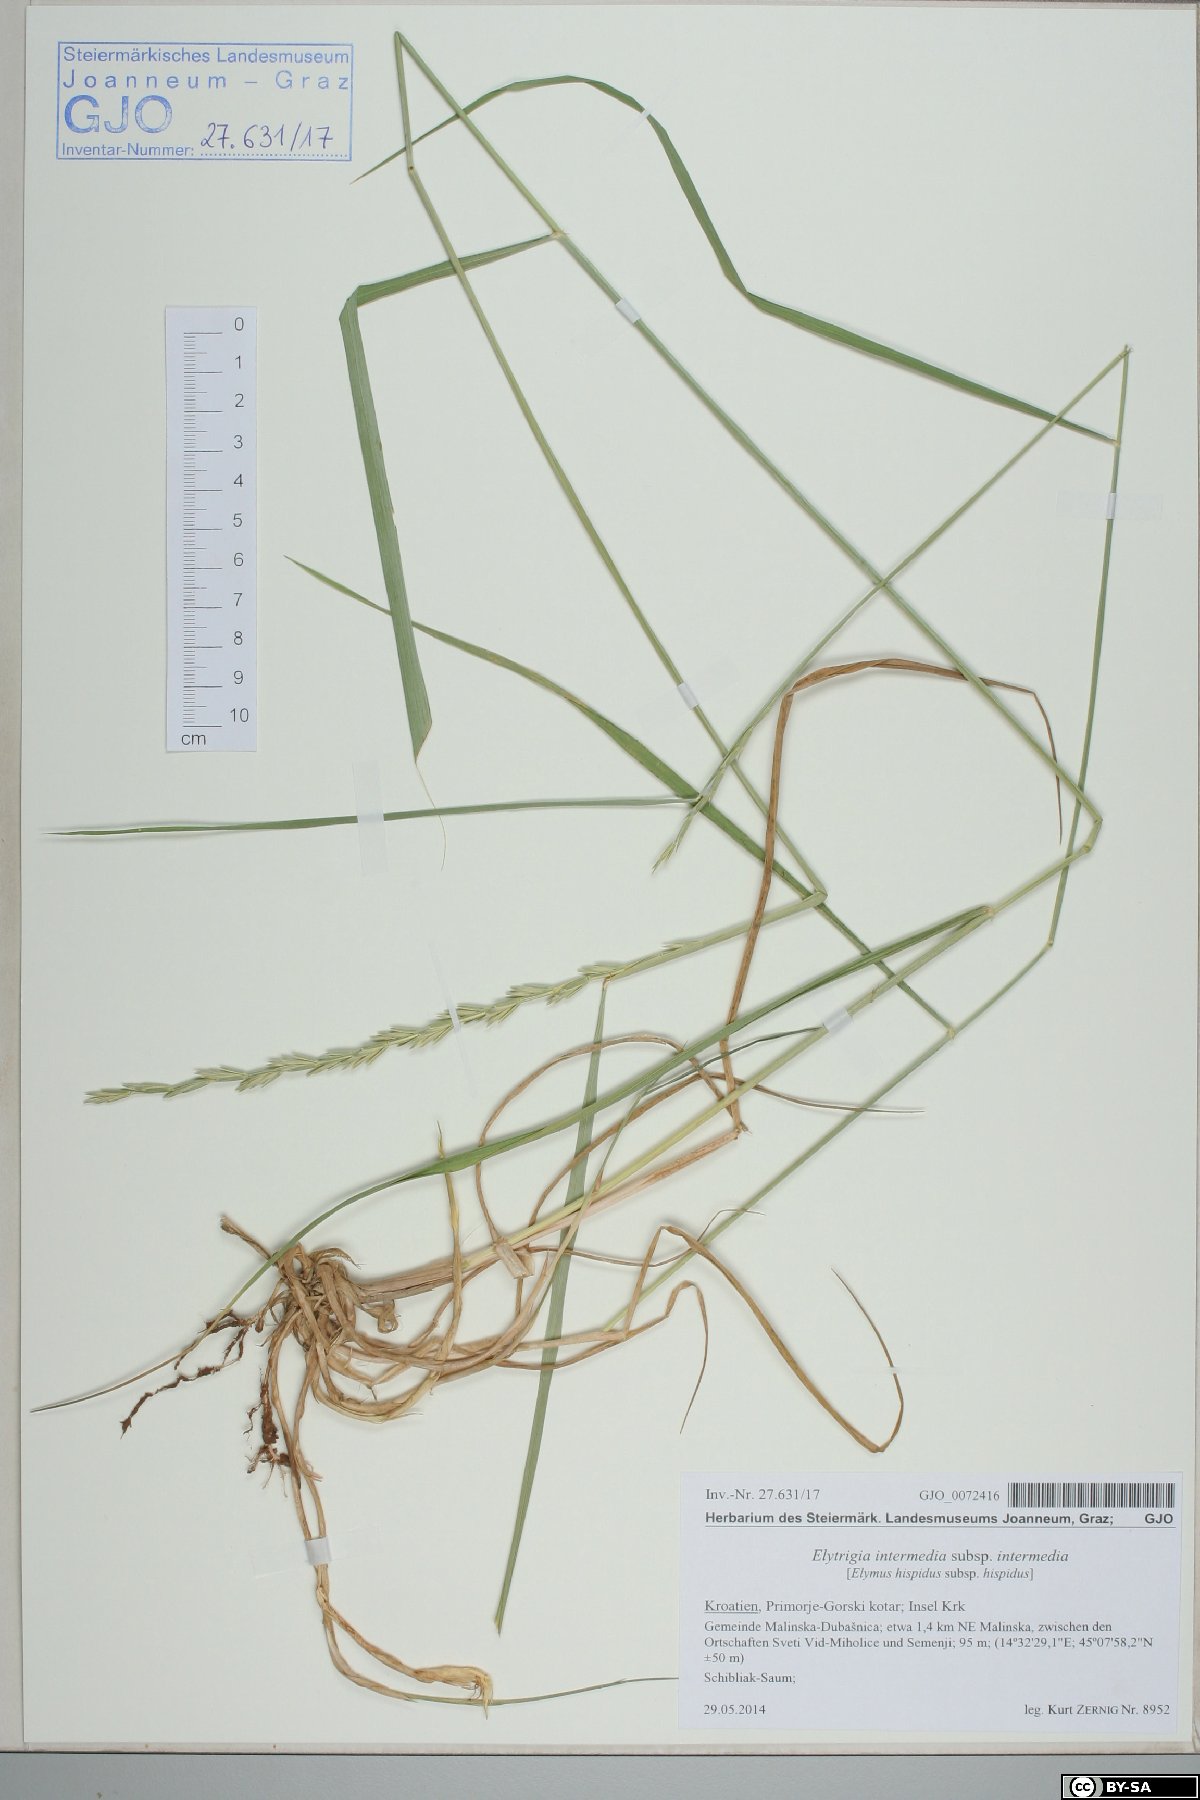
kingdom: Plantae
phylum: Tracheophyta
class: Liliopsida
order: Poales
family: Poaceae
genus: Thinopyrum
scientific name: Thinopyrum intermedium
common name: Intermediate wheatgrass
